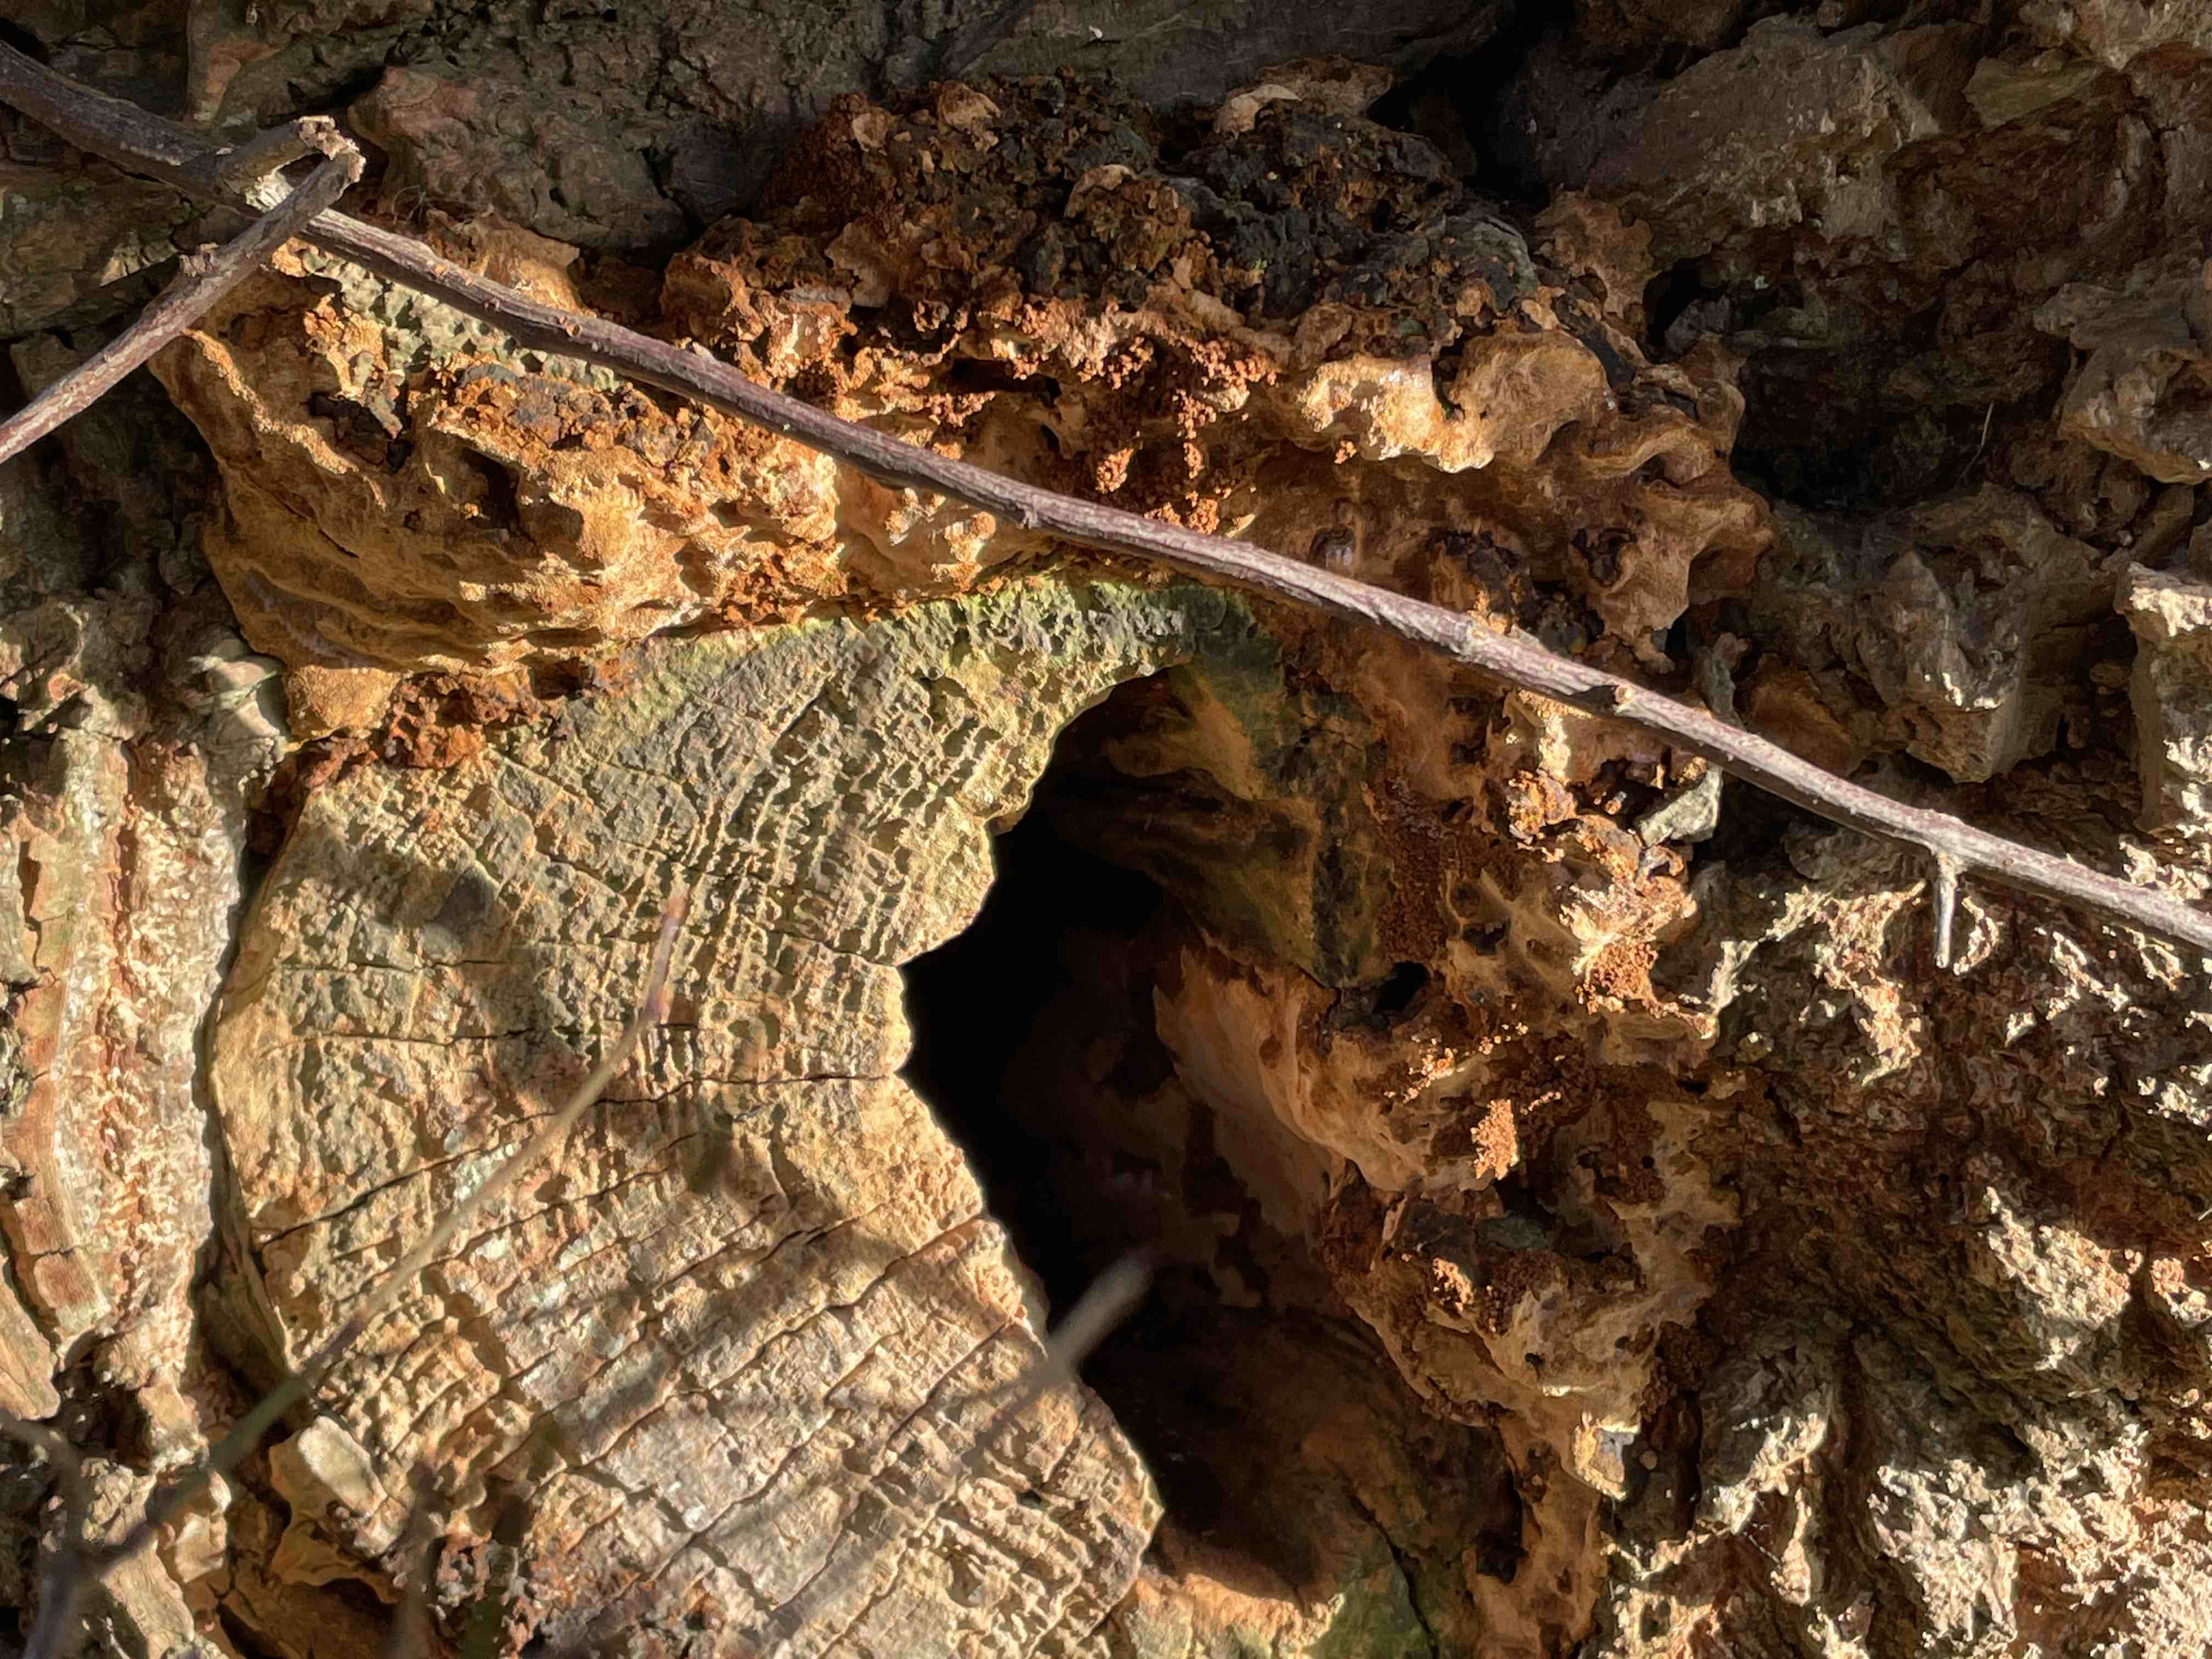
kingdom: Fungi
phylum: Basidiomycota
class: Agaricomycetes
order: Hymenochaetales
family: Hymenochaetaceae
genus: Phellinopsis
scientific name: Phellinopsis conchata
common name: pile-ildporesvamp
